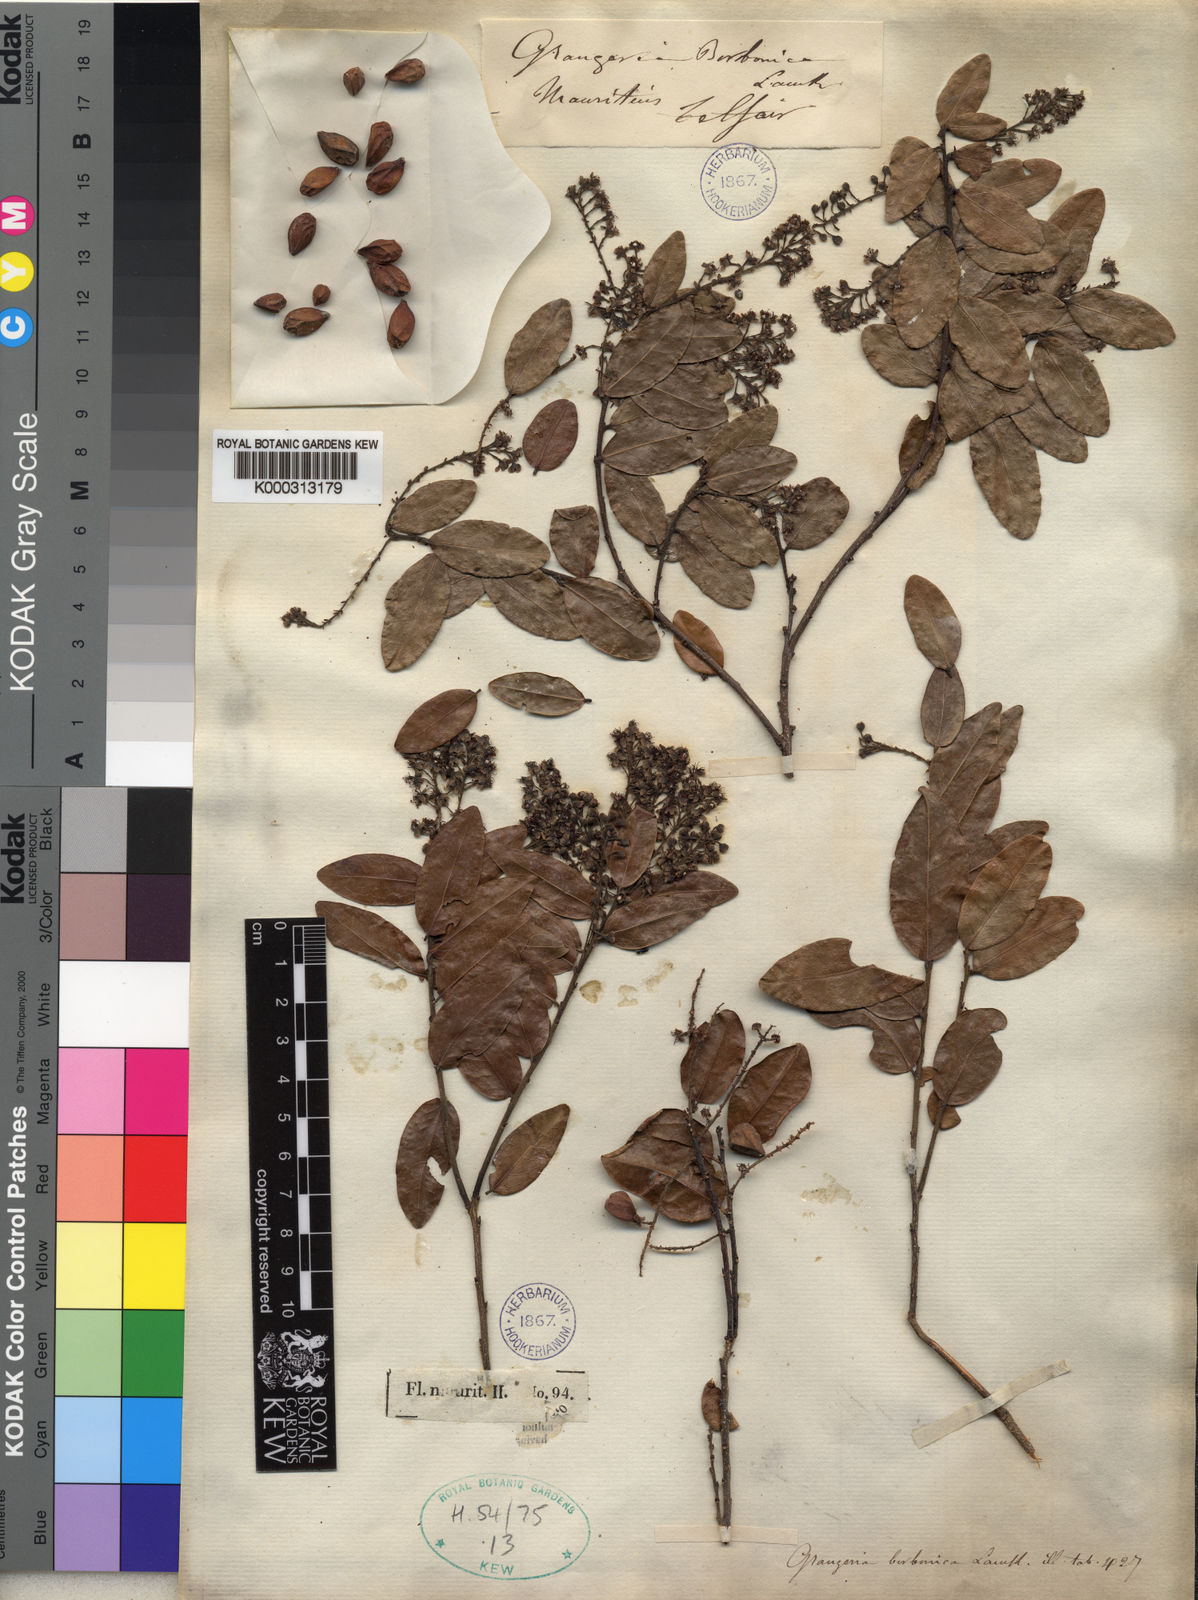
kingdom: Plantae
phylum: Tracheophyta
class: Magnoliopsida
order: Malpighiales
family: Chrysobalanaceae
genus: Grangeria
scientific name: Grangeria borbonica
